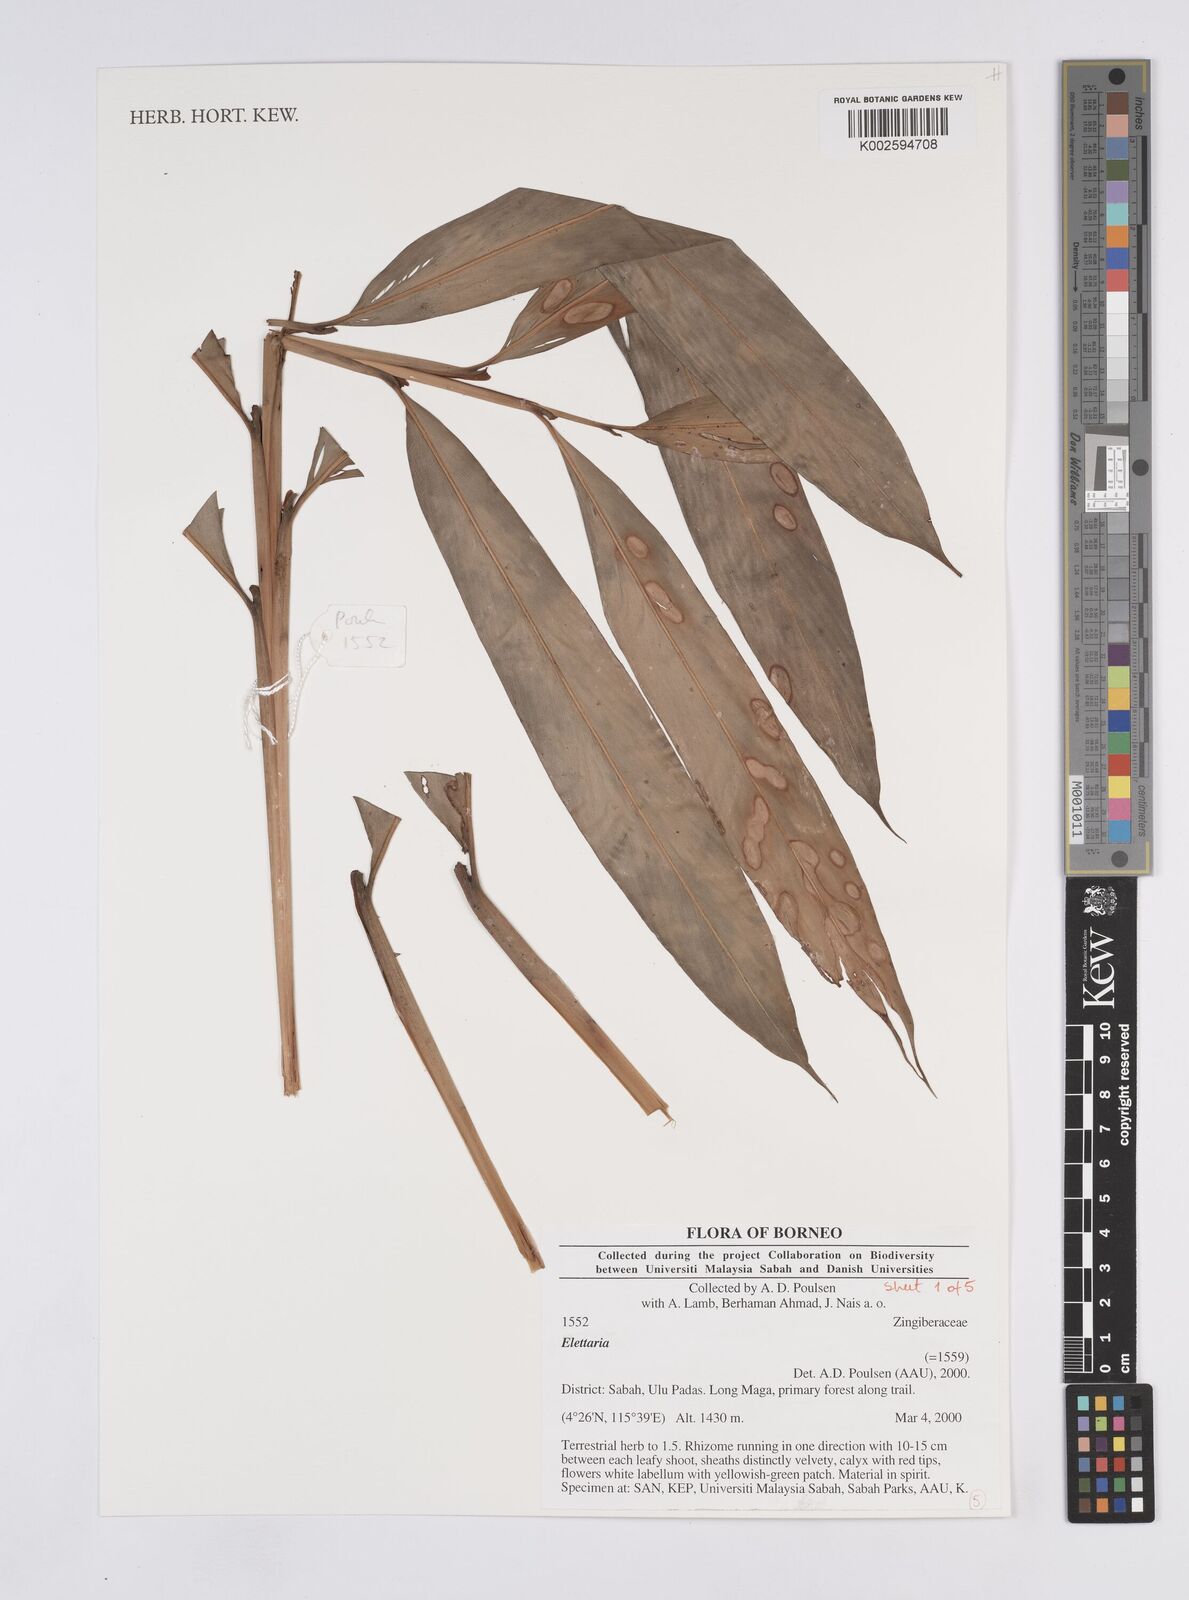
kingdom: Plantae
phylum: Tracheophyta
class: Liliopsida
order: Zingiberales
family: Zingiberaceae
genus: Elettaria
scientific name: Elettaria
